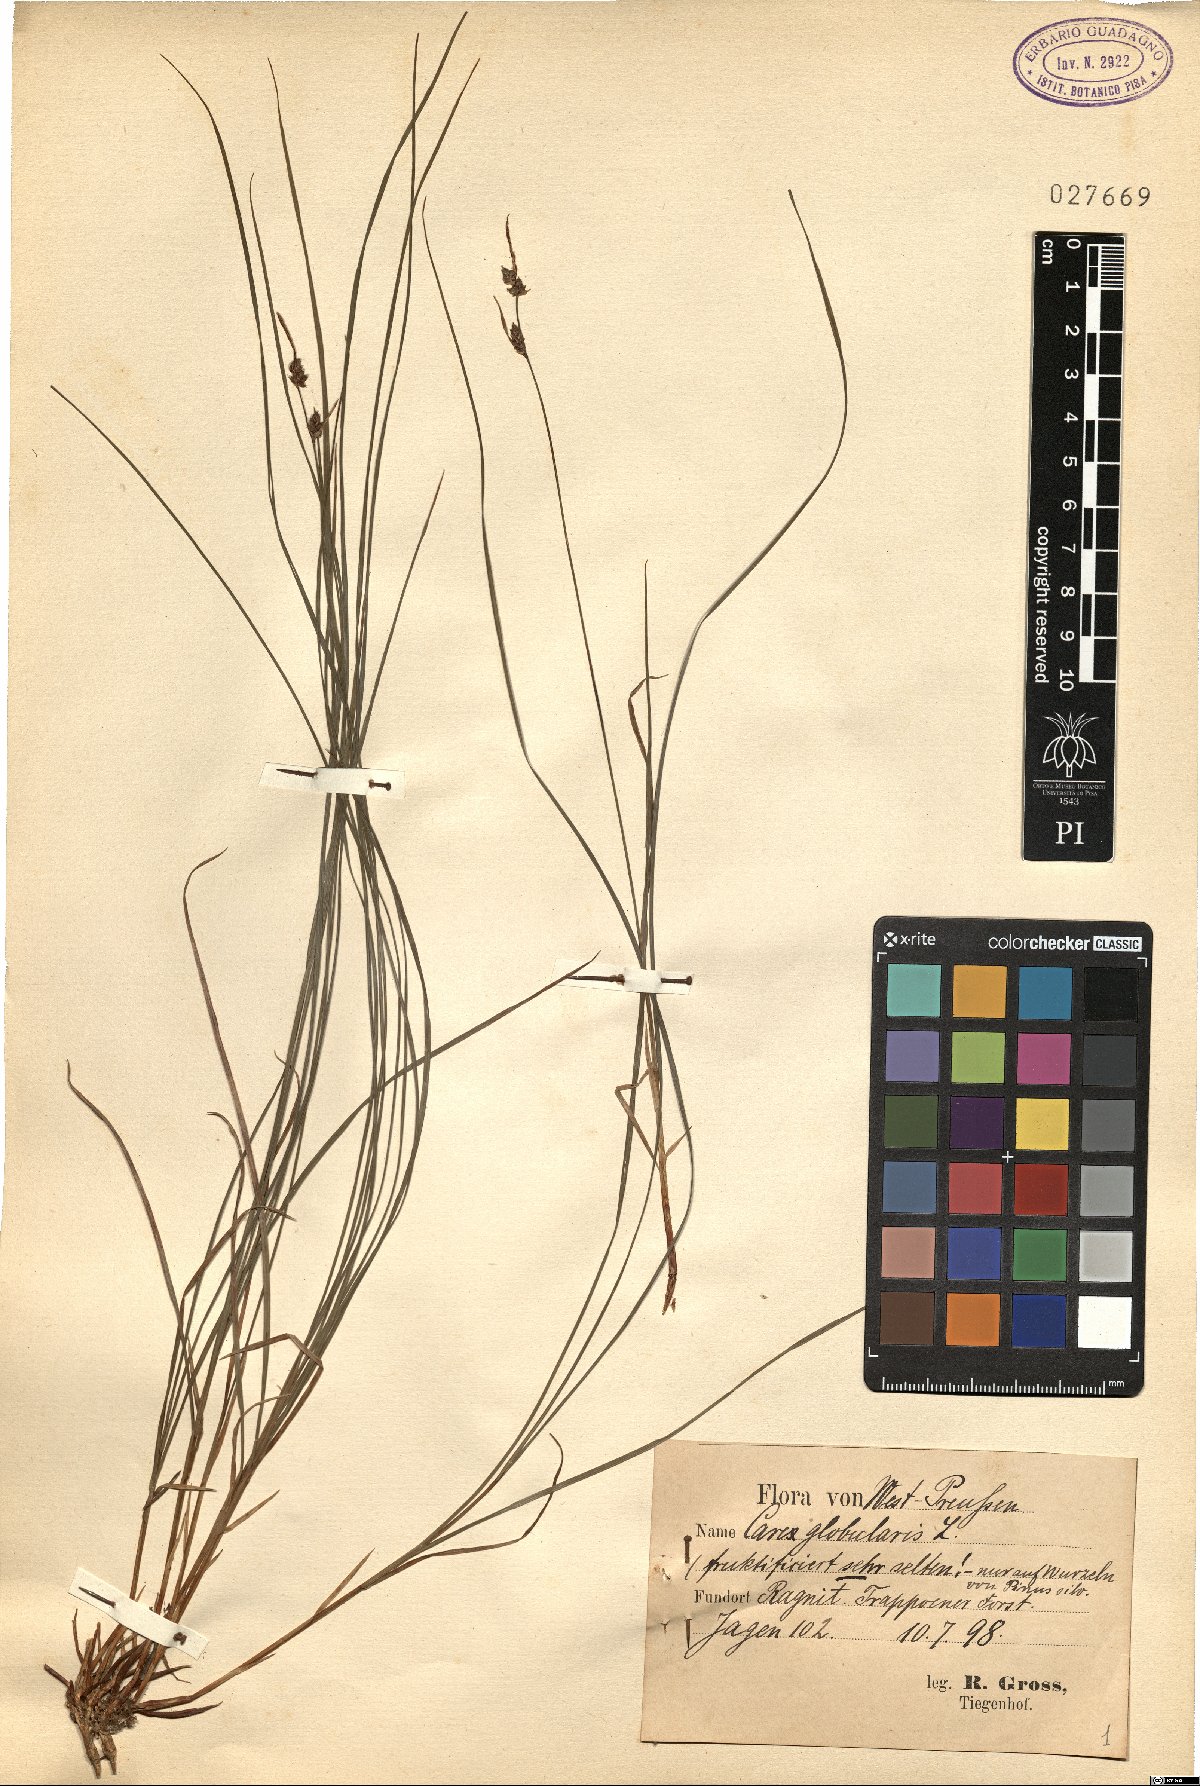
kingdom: Plantae
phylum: Tracheophyta
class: Liliopsida
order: Poales
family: Cyperaceae
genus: Carex
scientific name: Carex globularis
